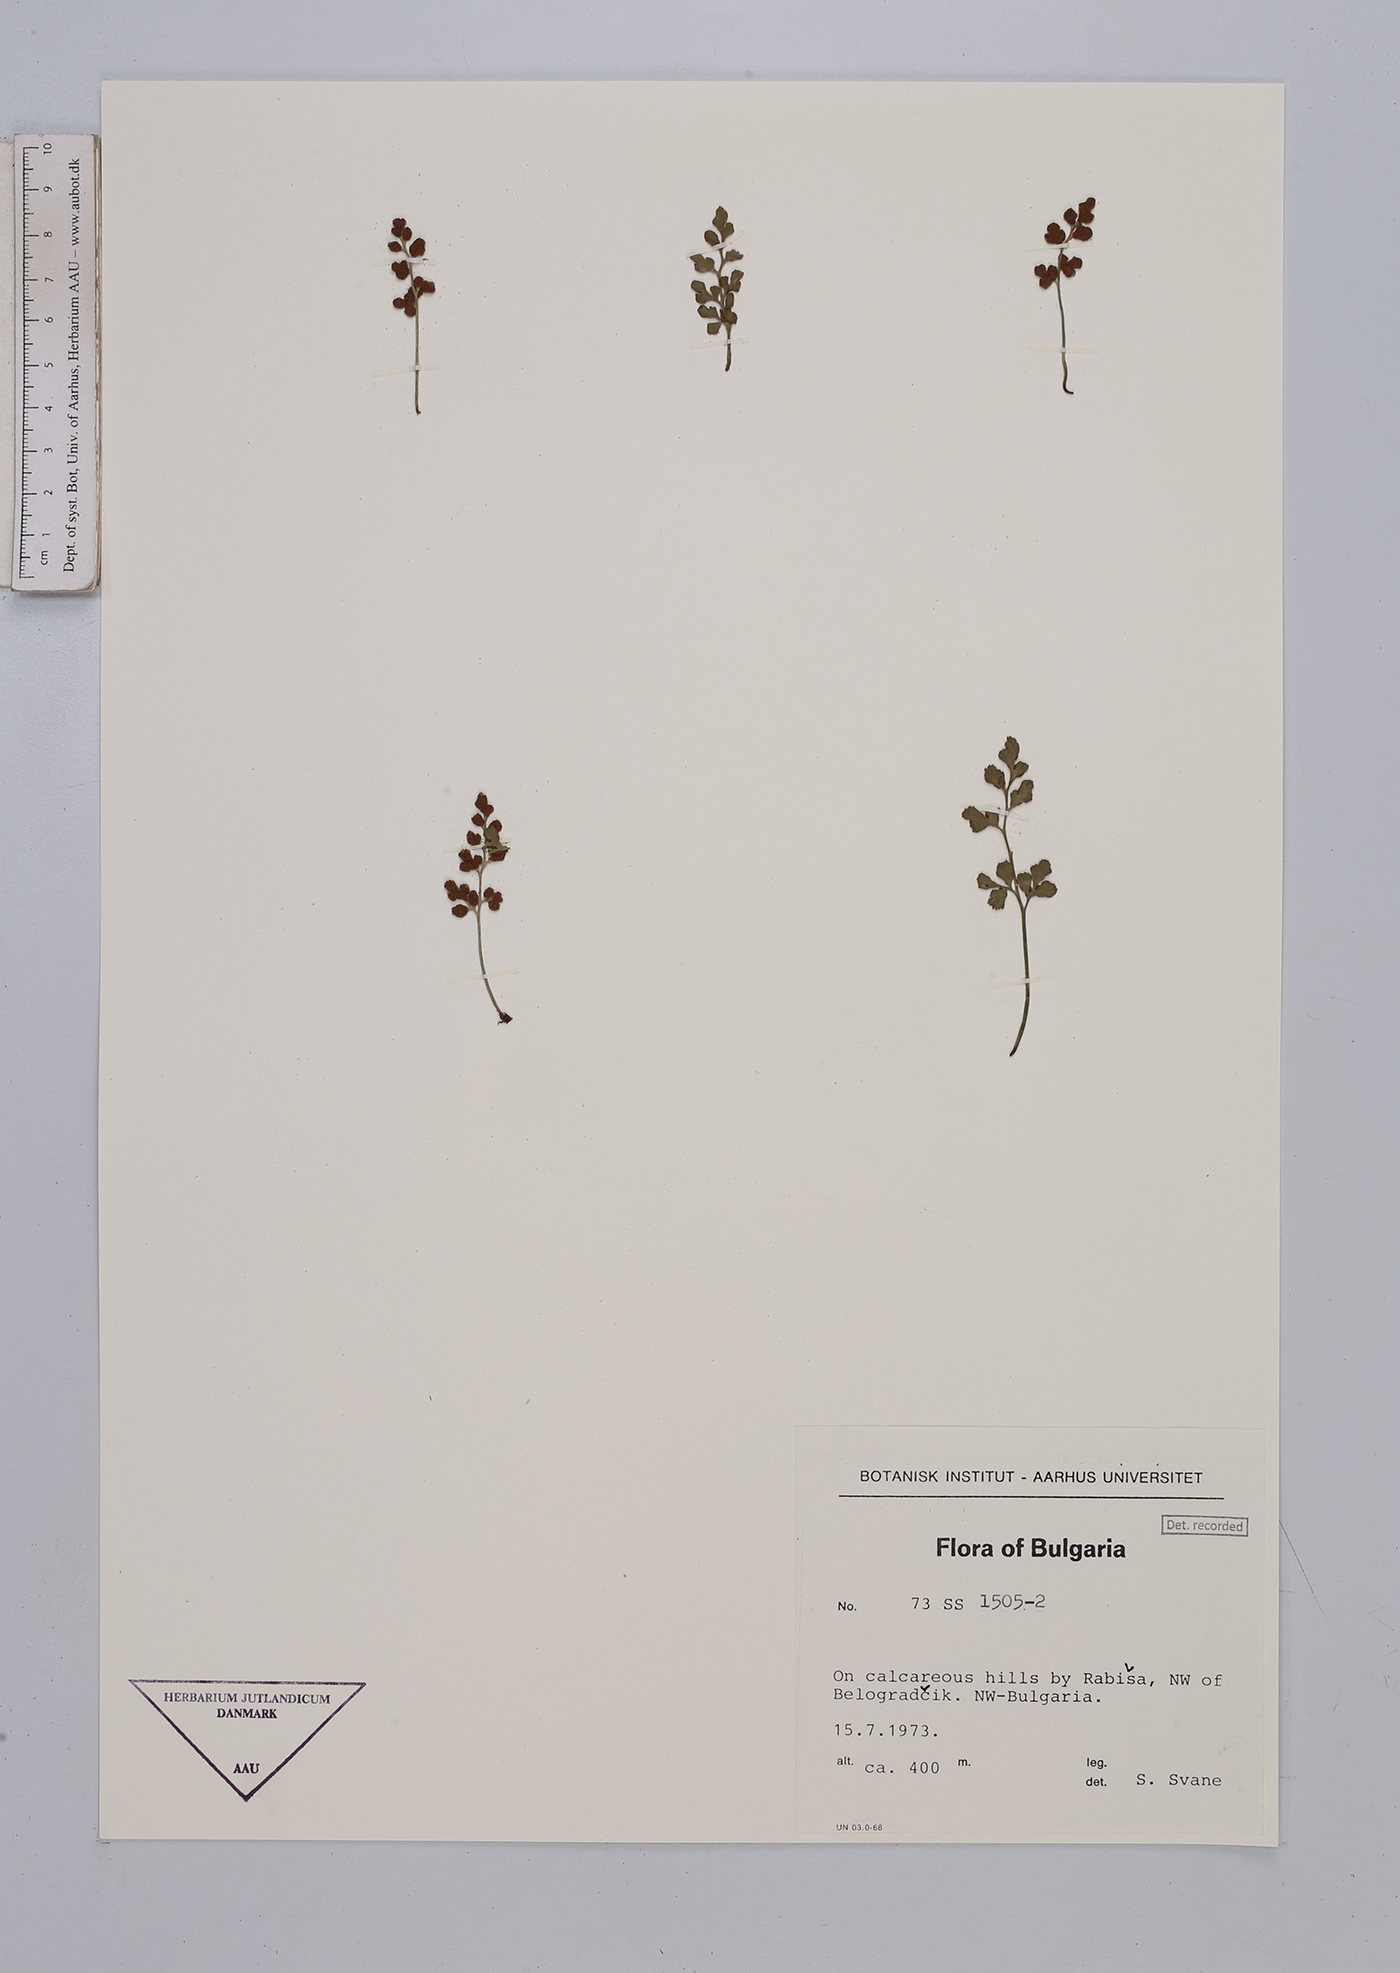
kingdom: Plantae
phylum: Tracheophyta
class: Polypodiopsida
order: Polypodiales
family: Aspleniaceae
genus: Asplenium
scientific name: Asplenium ruta-muraria
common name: Wall-rue
